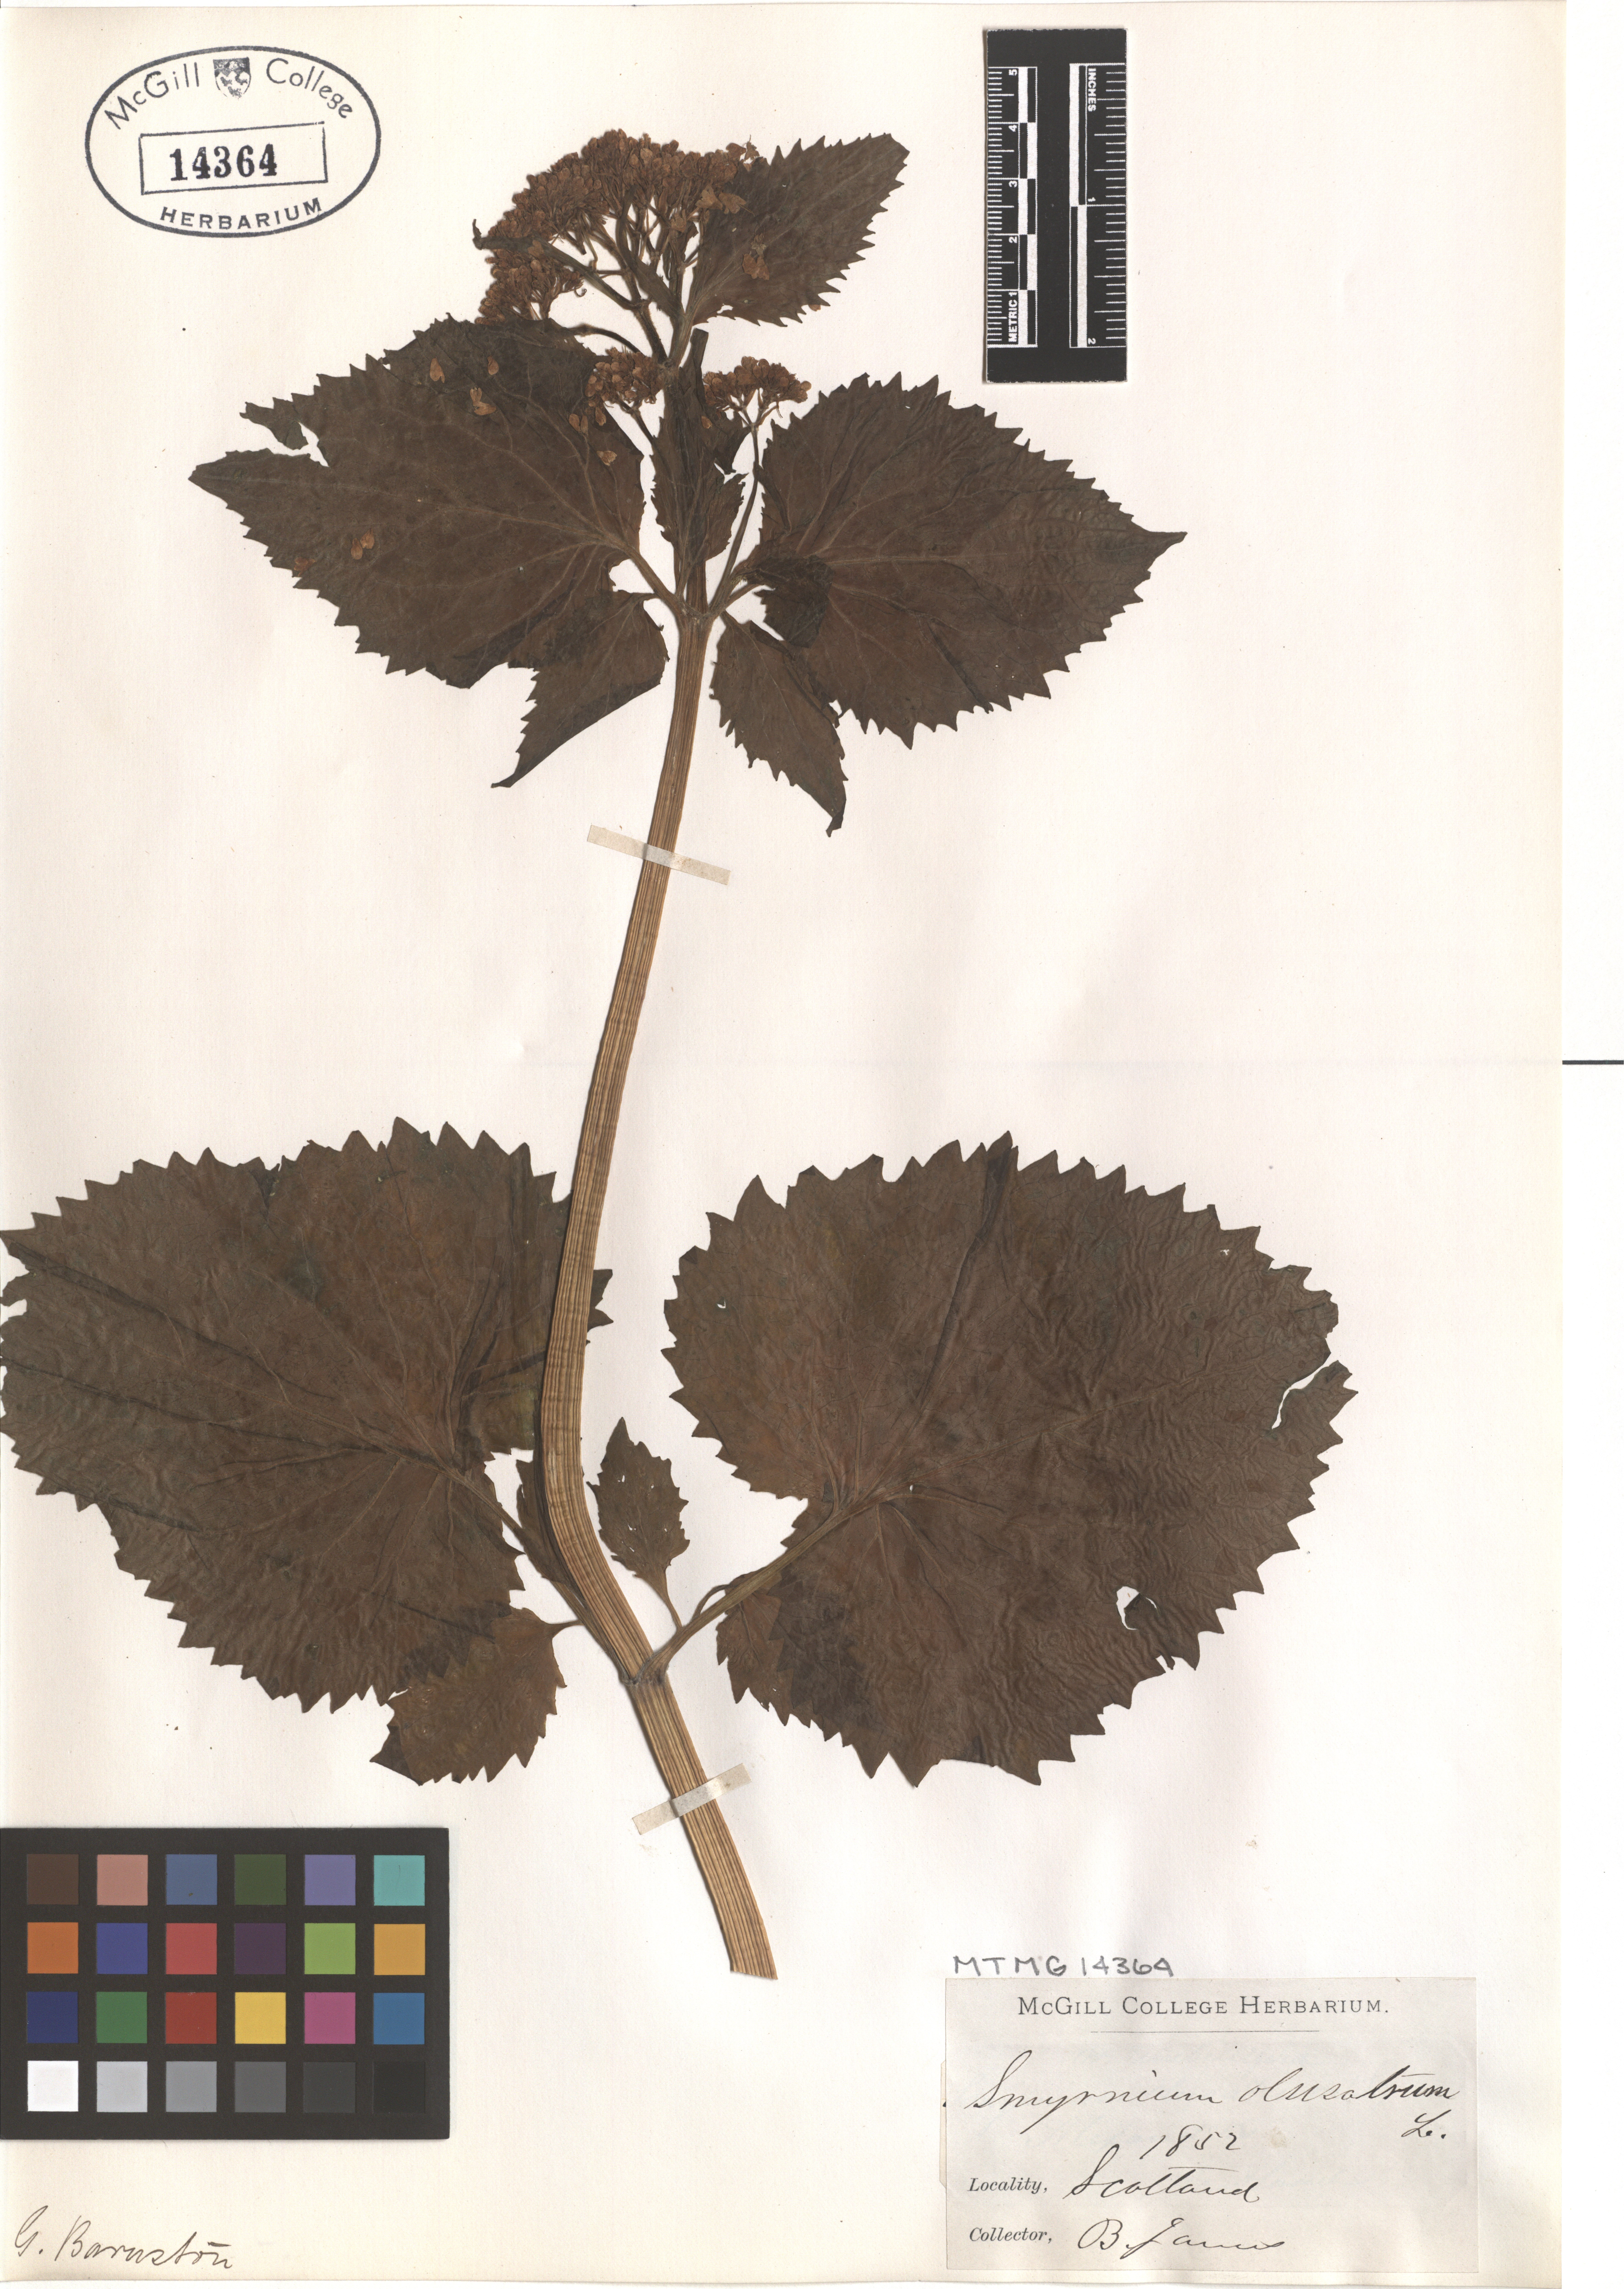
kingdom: Plantae
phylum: Tracheophyta
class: Magnoliopsida
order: Apiales
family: Apiaceae
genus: Smyrnium
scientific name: Smyrnium olusatrum
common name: Alexanders
